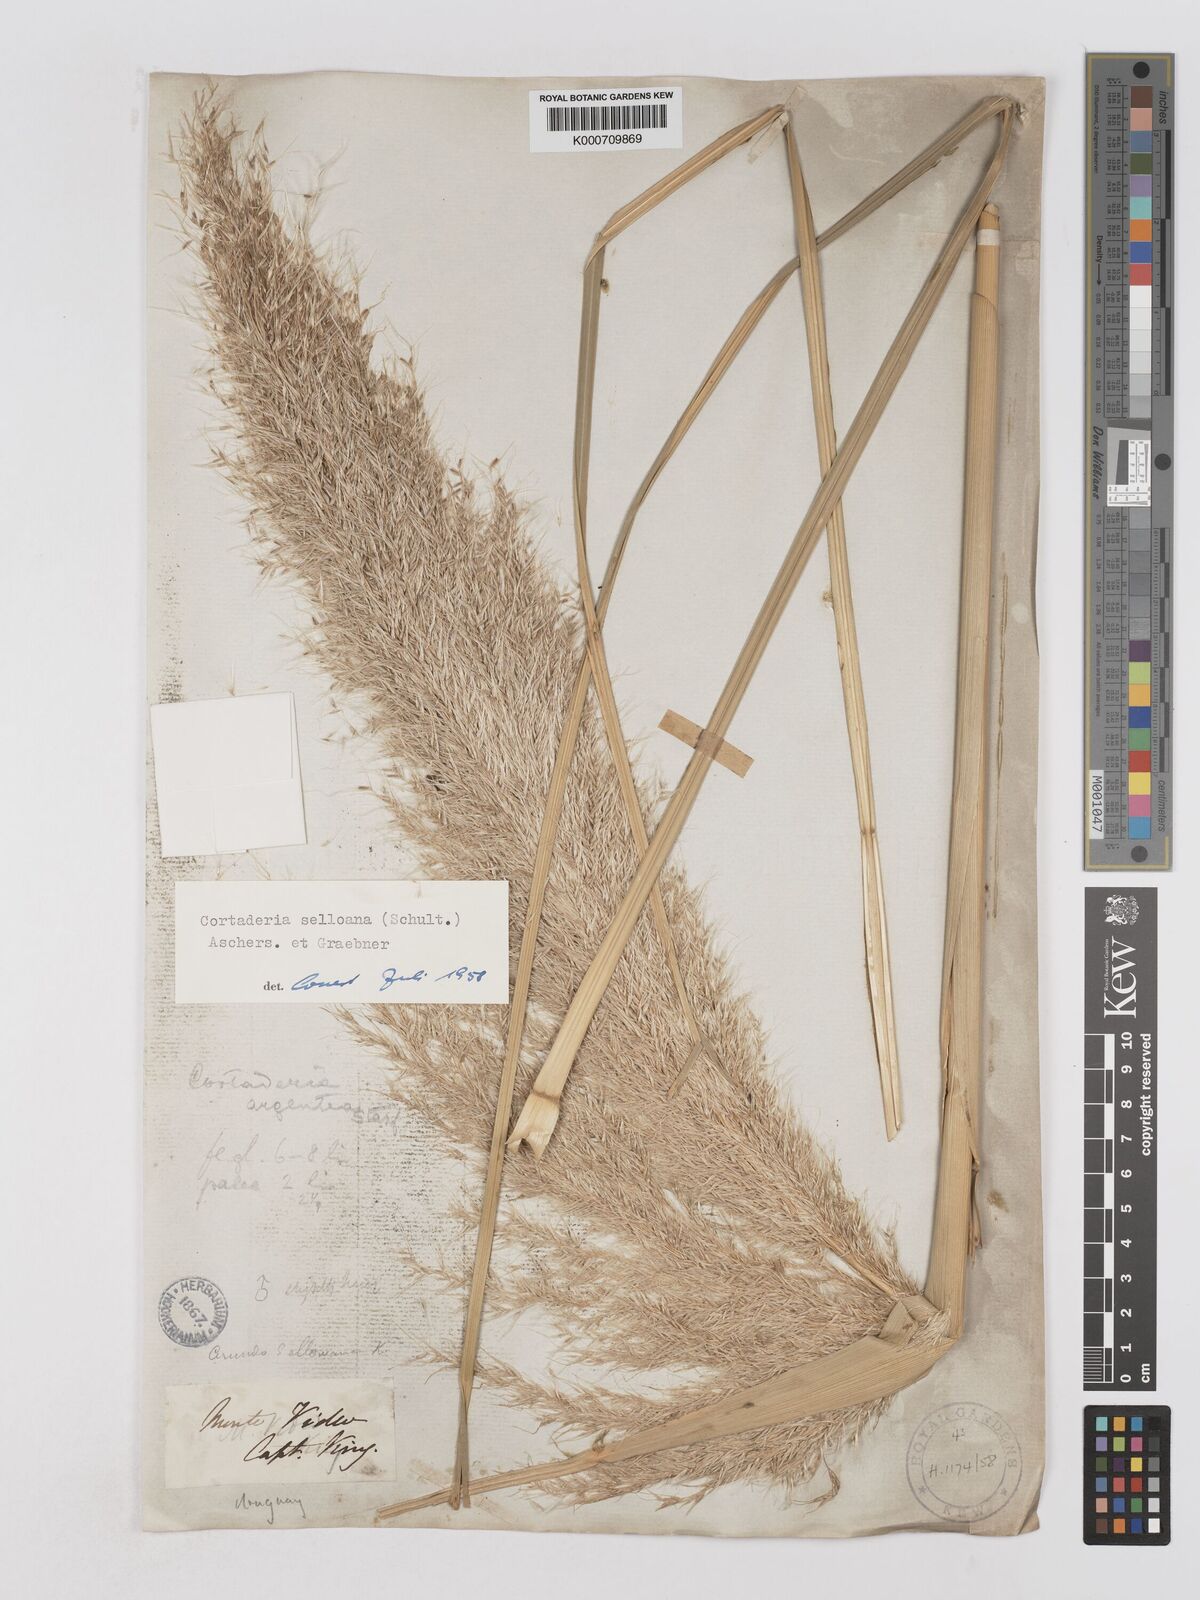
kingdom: Plantae
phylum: Tracheophyta
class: Liliopsida
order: Poales
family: Poaceae
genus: Cortaderia
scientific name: Cortaderia selloana
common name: Uruguayan pampas grass
